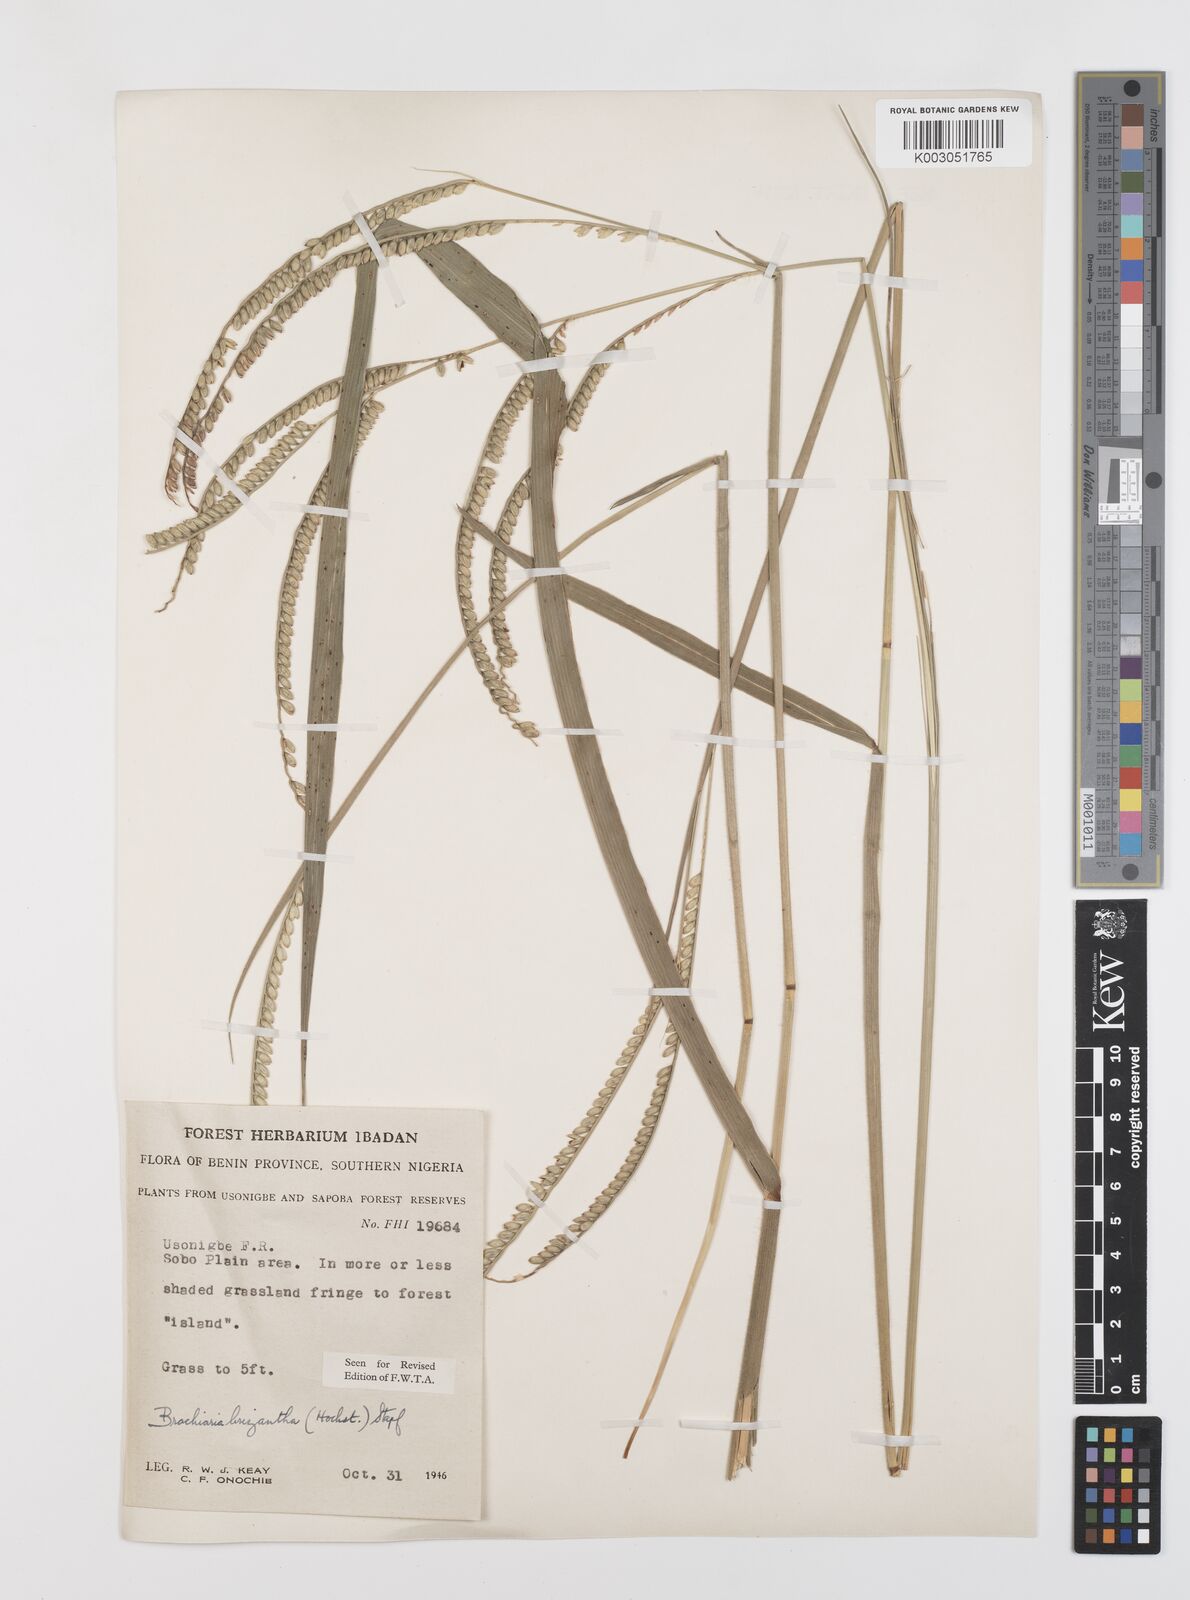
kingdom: Plantae
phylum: Tracheophyta
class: Liliopsida
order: Poales
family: Poaceae
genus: Urochloa
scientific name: Urochloa brizantha
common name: Palisade signalgrass
